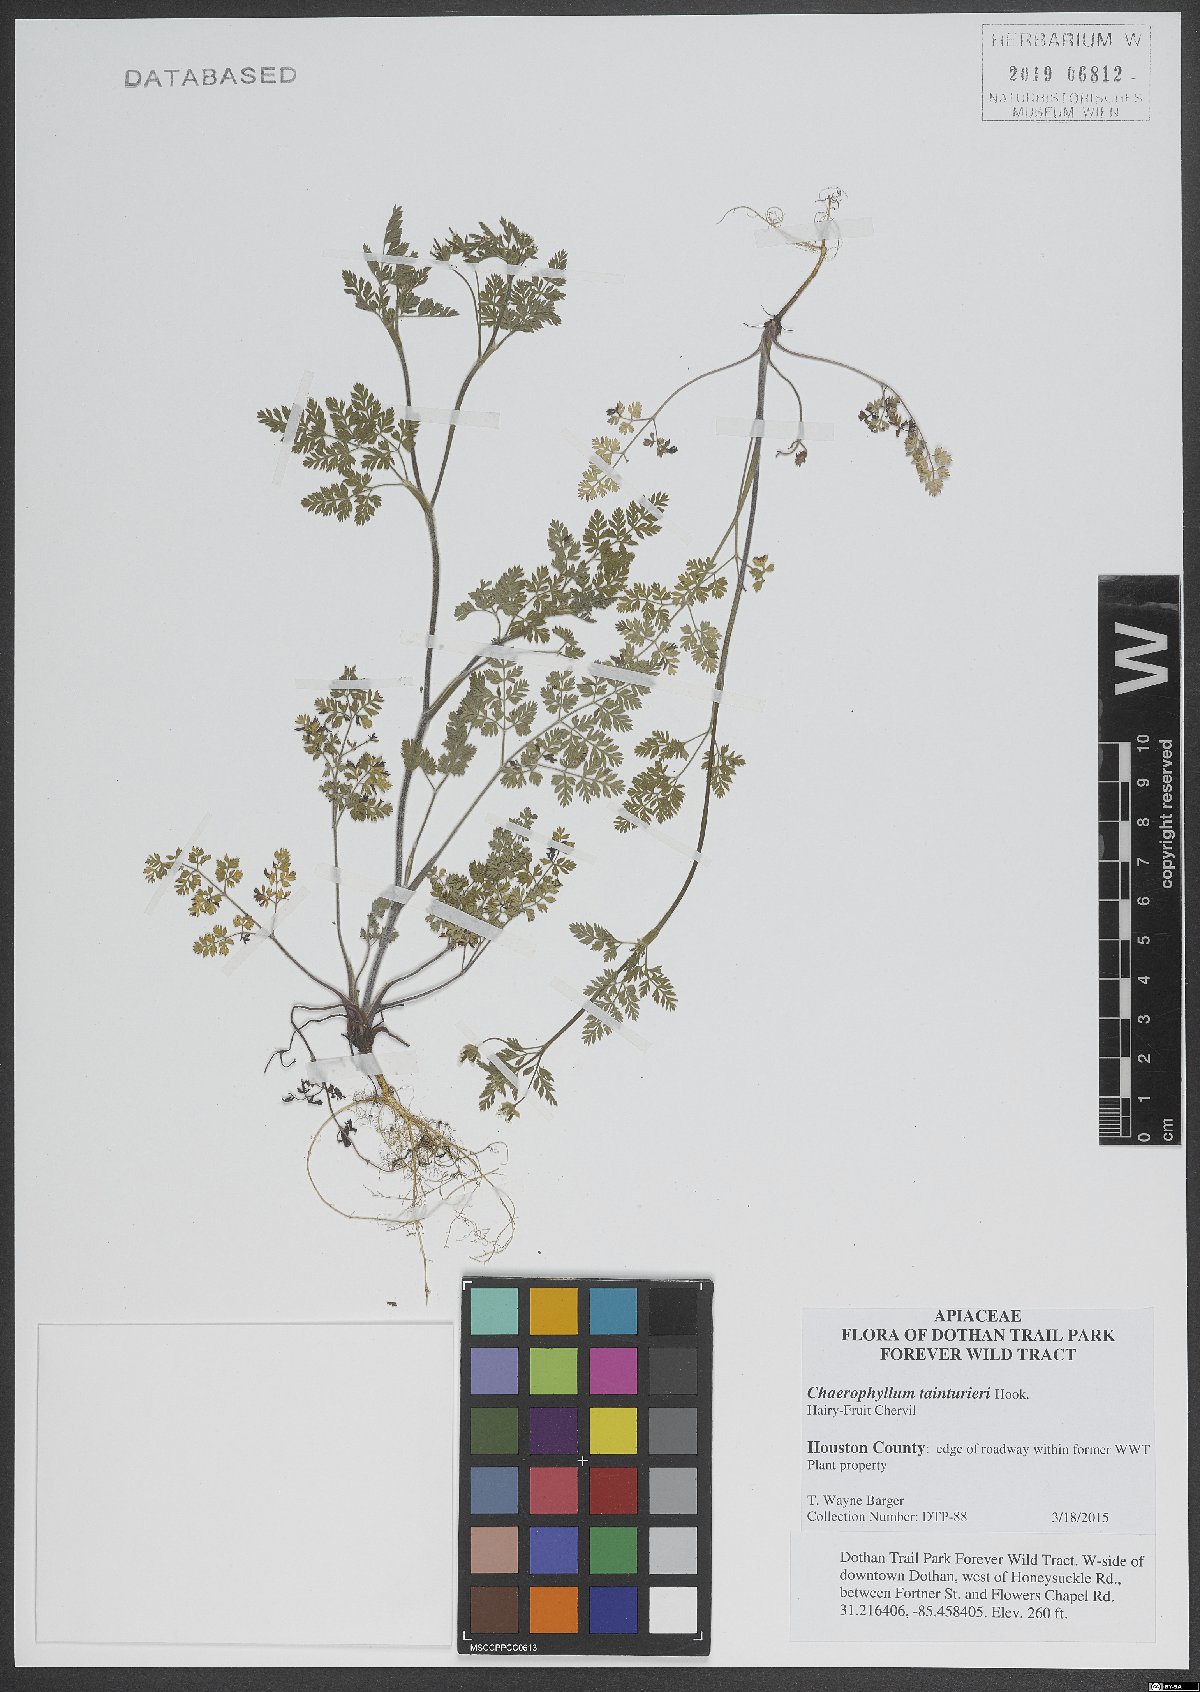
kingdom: Plantae
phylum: Tracheophyta
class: Magnoliopsida
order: Apiales
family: Apiaceae
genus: Chaerophyllum
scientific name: Chaerophyllum tainturieri
